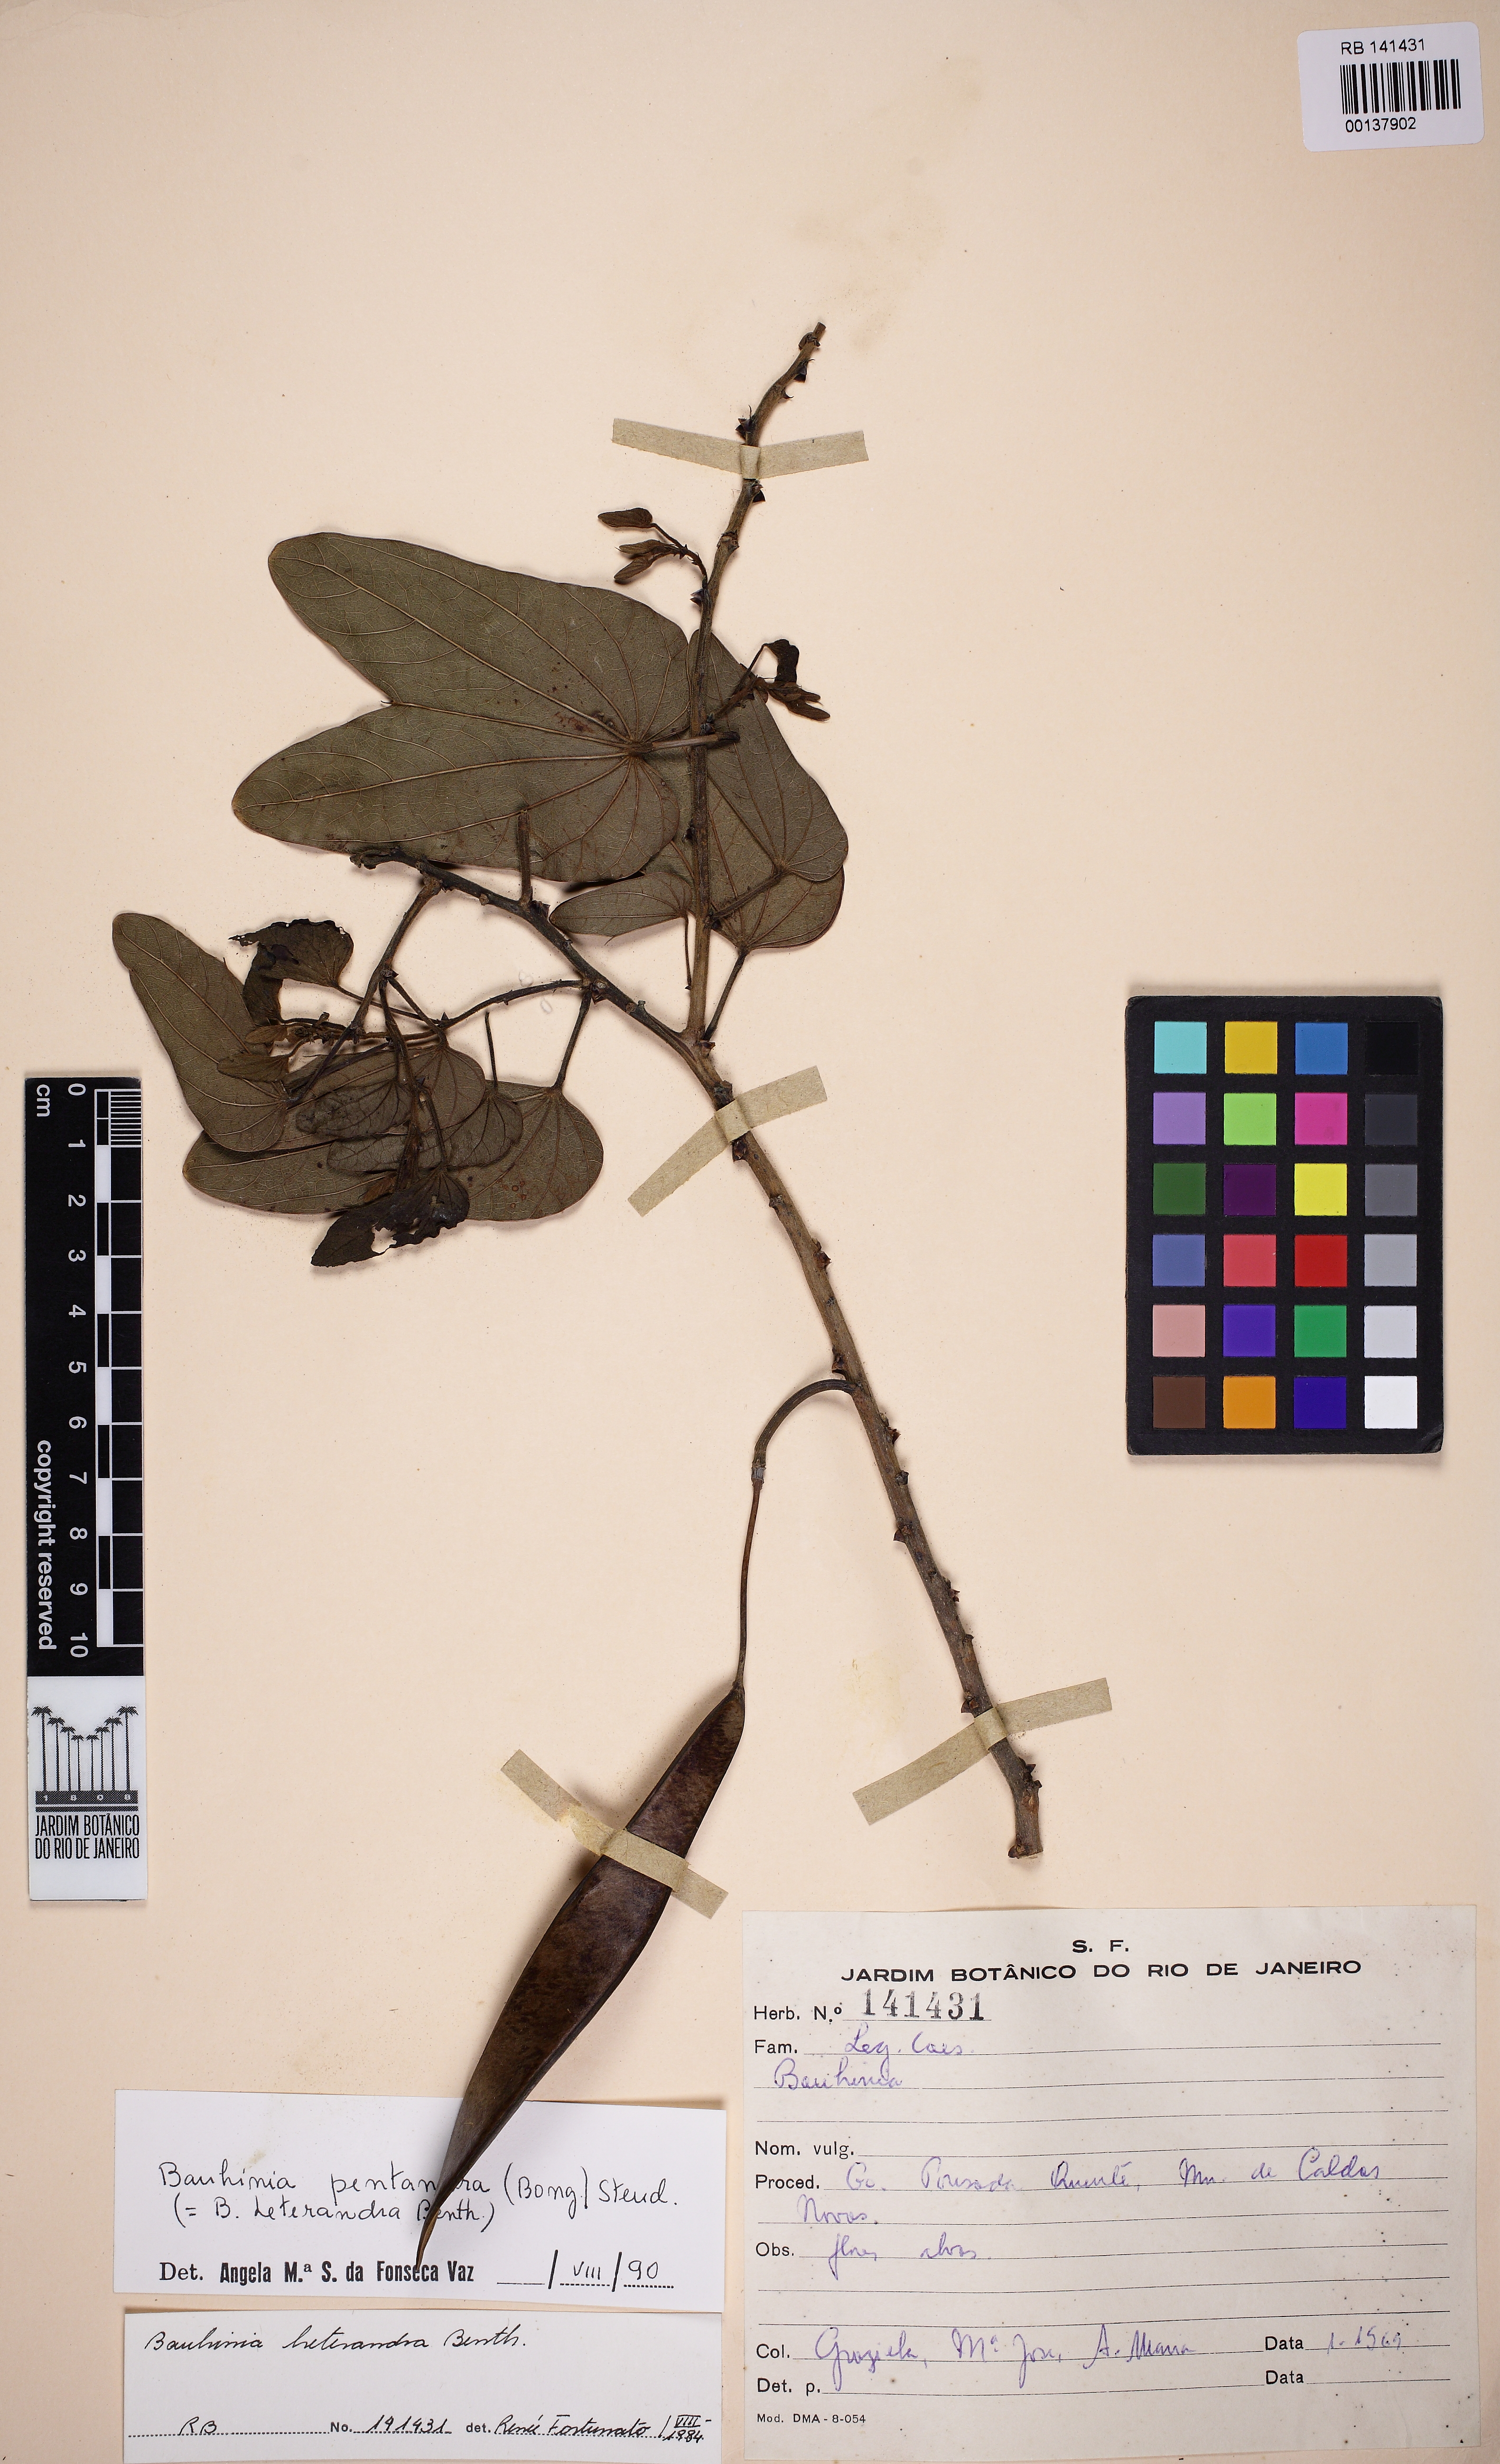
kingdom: Plantae
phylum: Tracheophyta
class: Magnoliopsida
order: Fabales
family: Fabaceae
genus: Bauhinia
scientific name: Bauhinia pentandra
